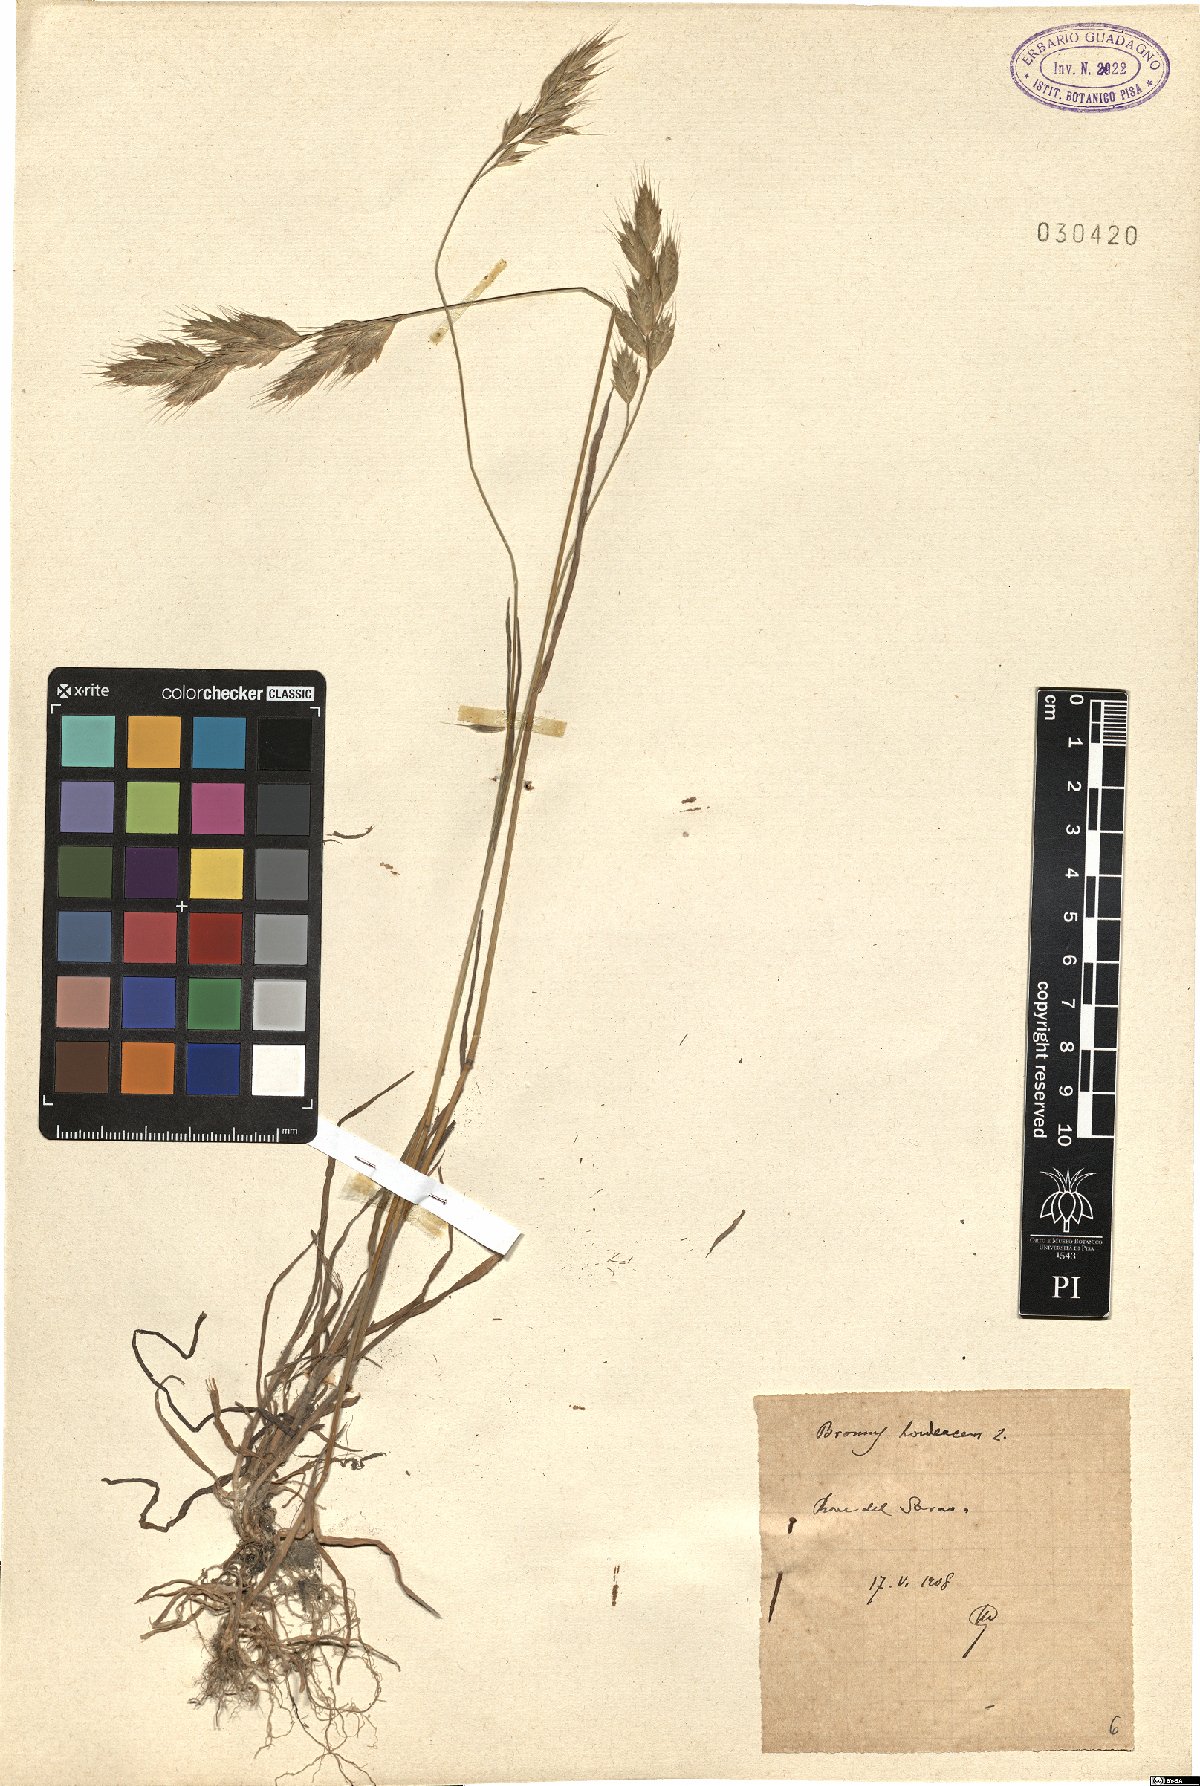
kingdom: Plantae
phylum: Tracheophyta
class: Liliopsida
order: Poales
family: Poaceae
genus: Bromus
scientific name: Bromus hordeaceus
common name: Soft brome
